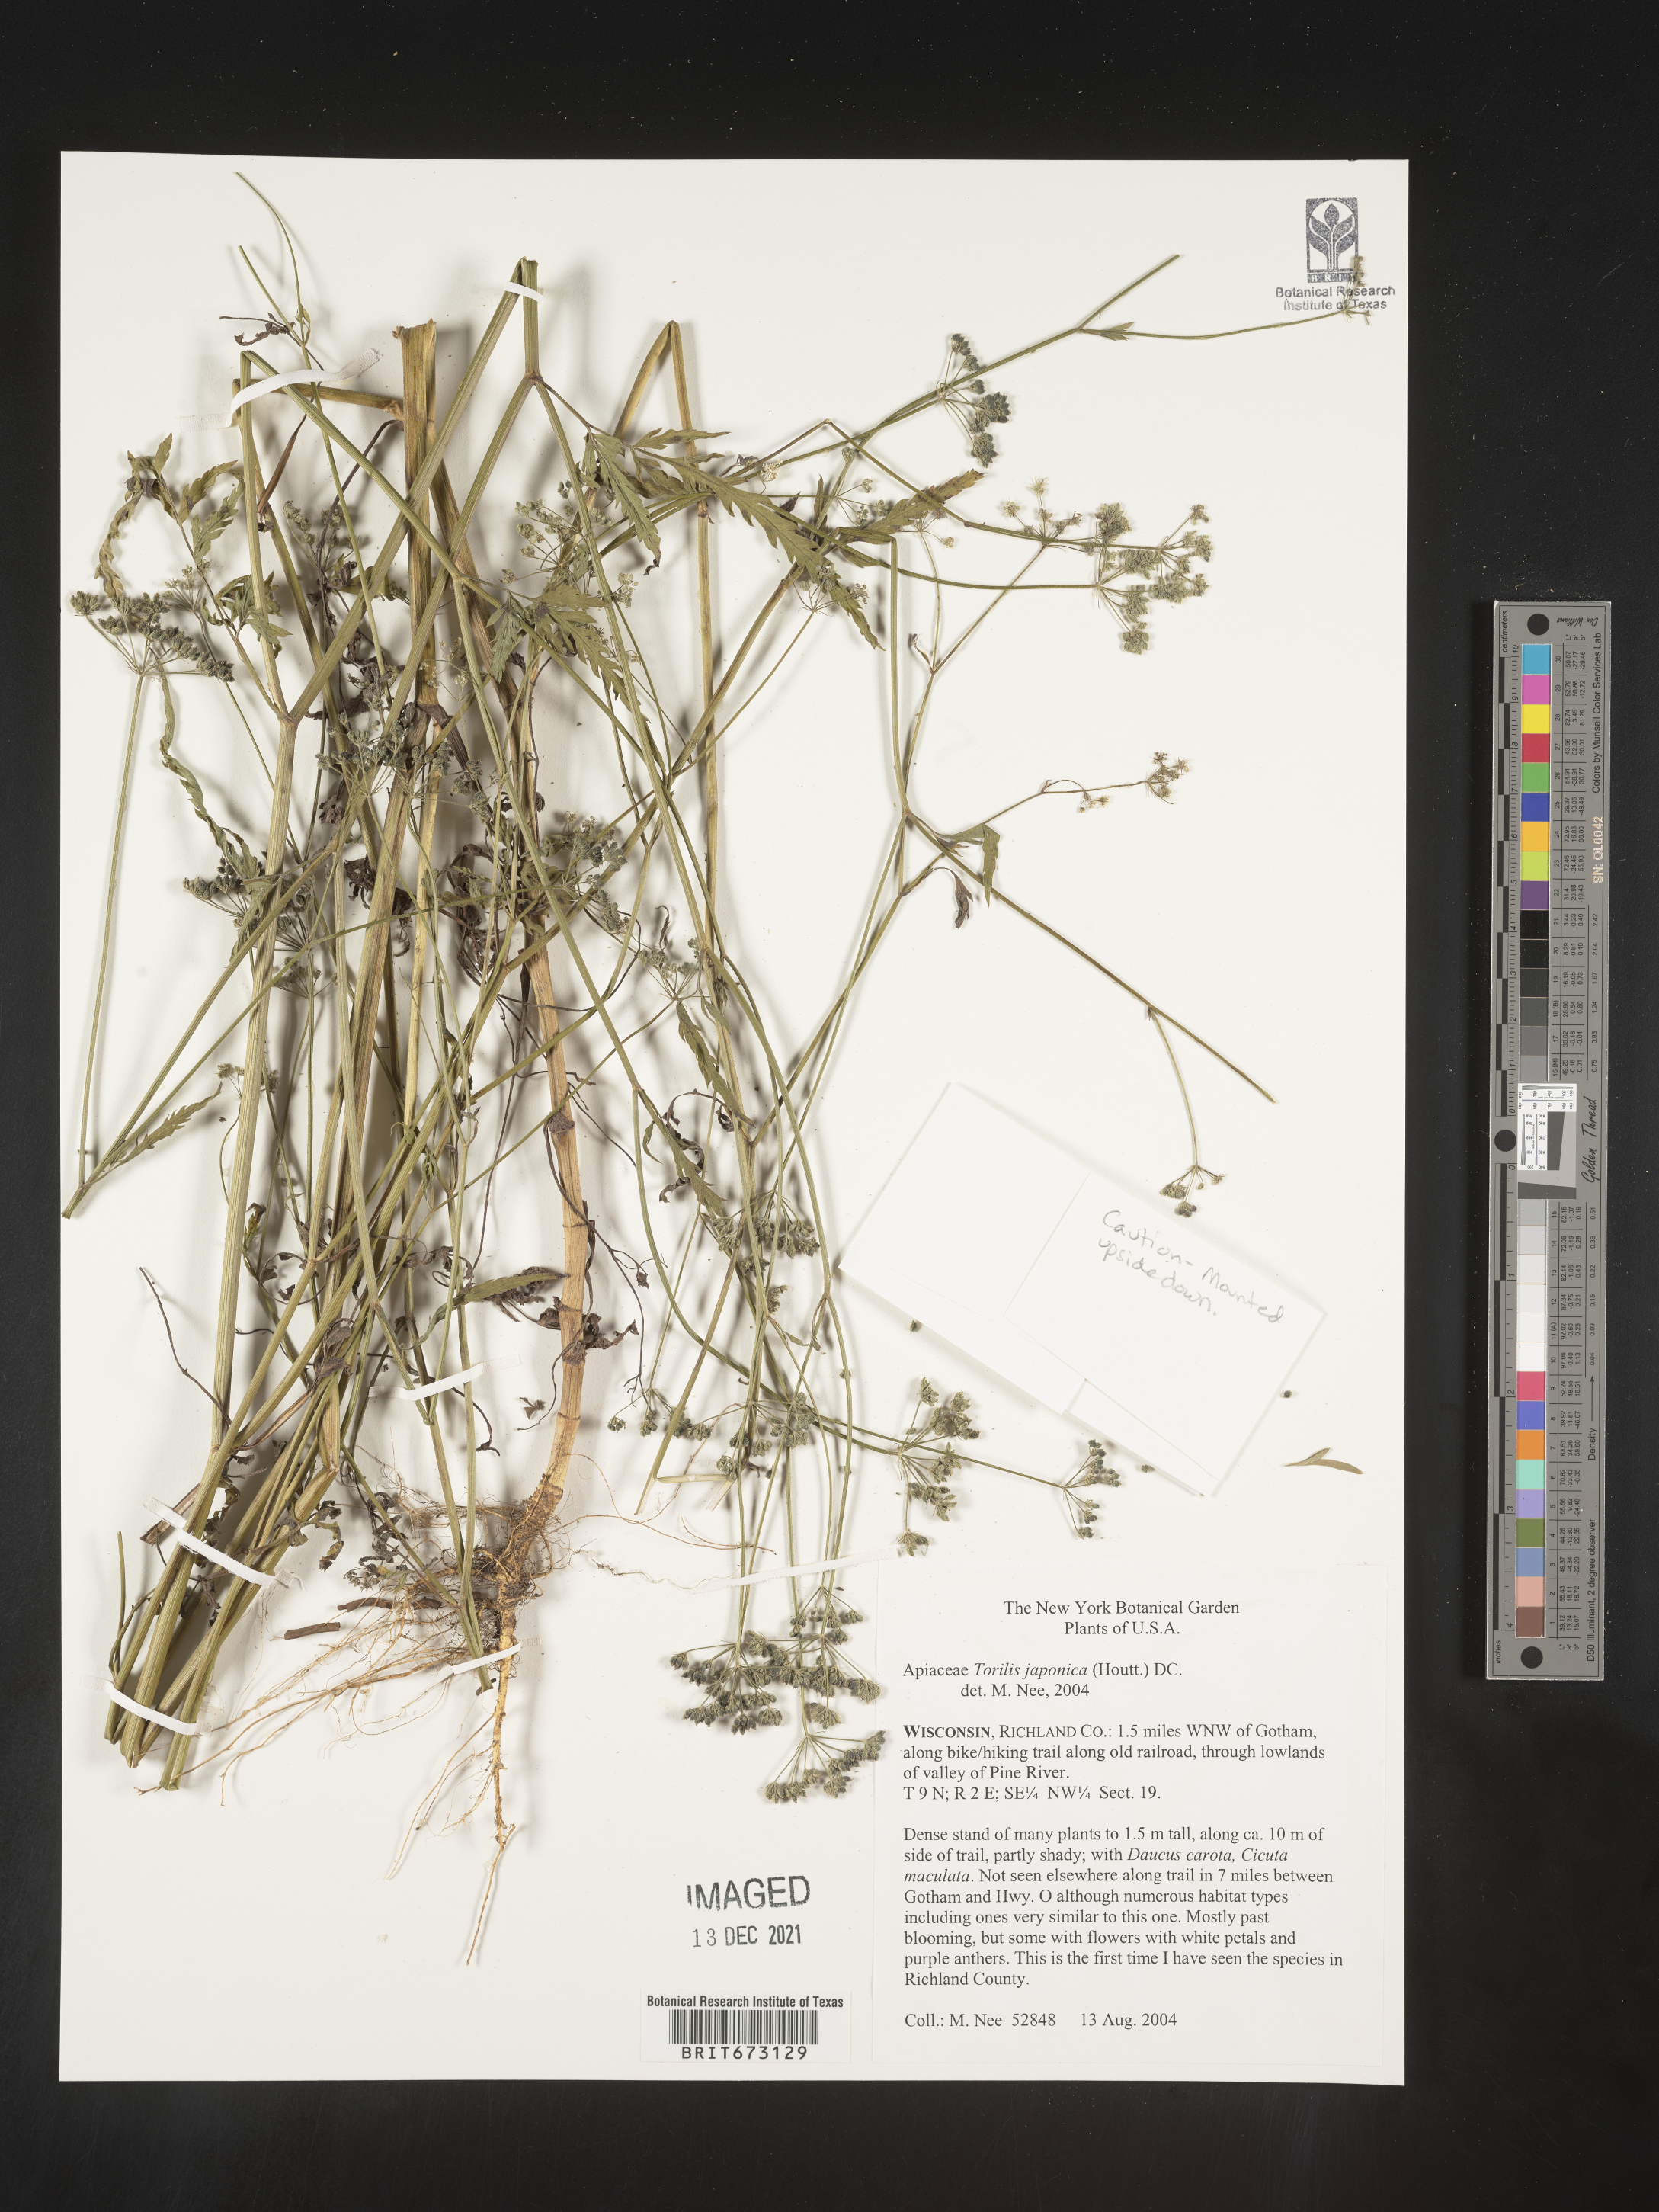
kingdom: Plantae
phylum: Tracheophyta
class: Magnoliopsida
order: Apiales
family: Apiaceae
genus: Torilis
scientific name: Torilis japonica
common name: Upright hedge-parsley
